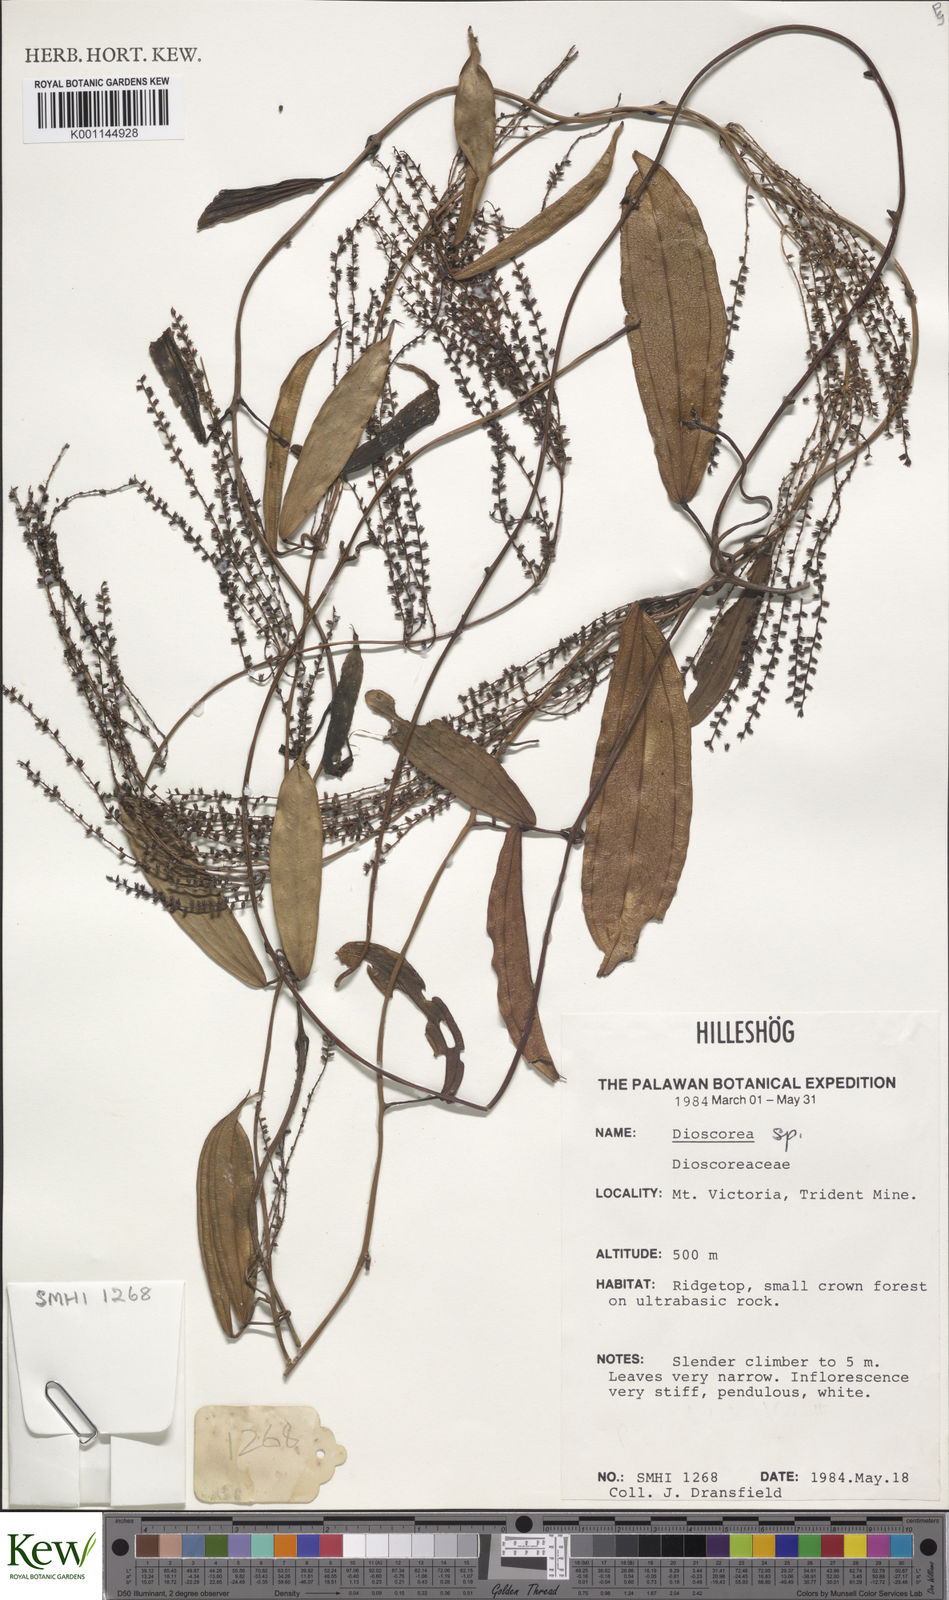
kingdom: Plantae
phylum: Tracheophyta
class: Liliopsida
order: Dioscoreales
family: Dioscoreaceae
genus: Dioscorea
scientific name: Dioscorea
